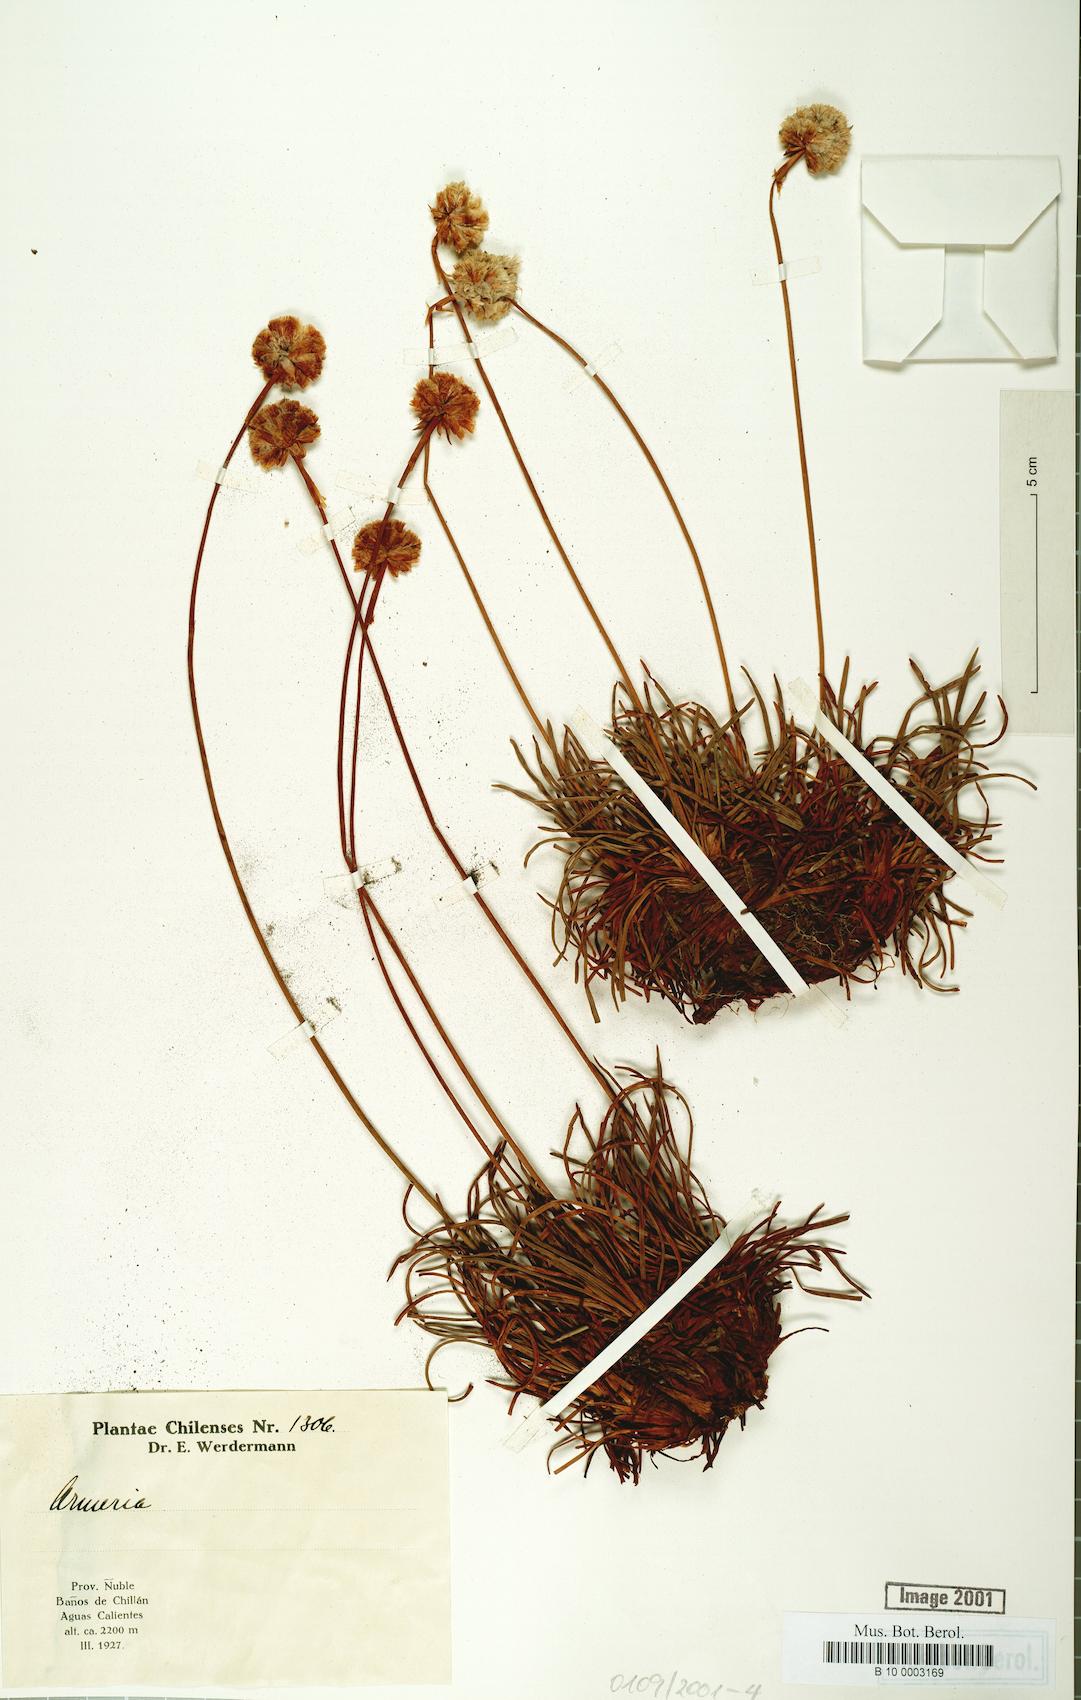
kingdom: Plantae
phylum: Tracheophyta
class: Magnoliopsida
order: Caryophyllales
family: Plumbaginaceae
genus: Armeria
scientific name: Armeria curvifolia
